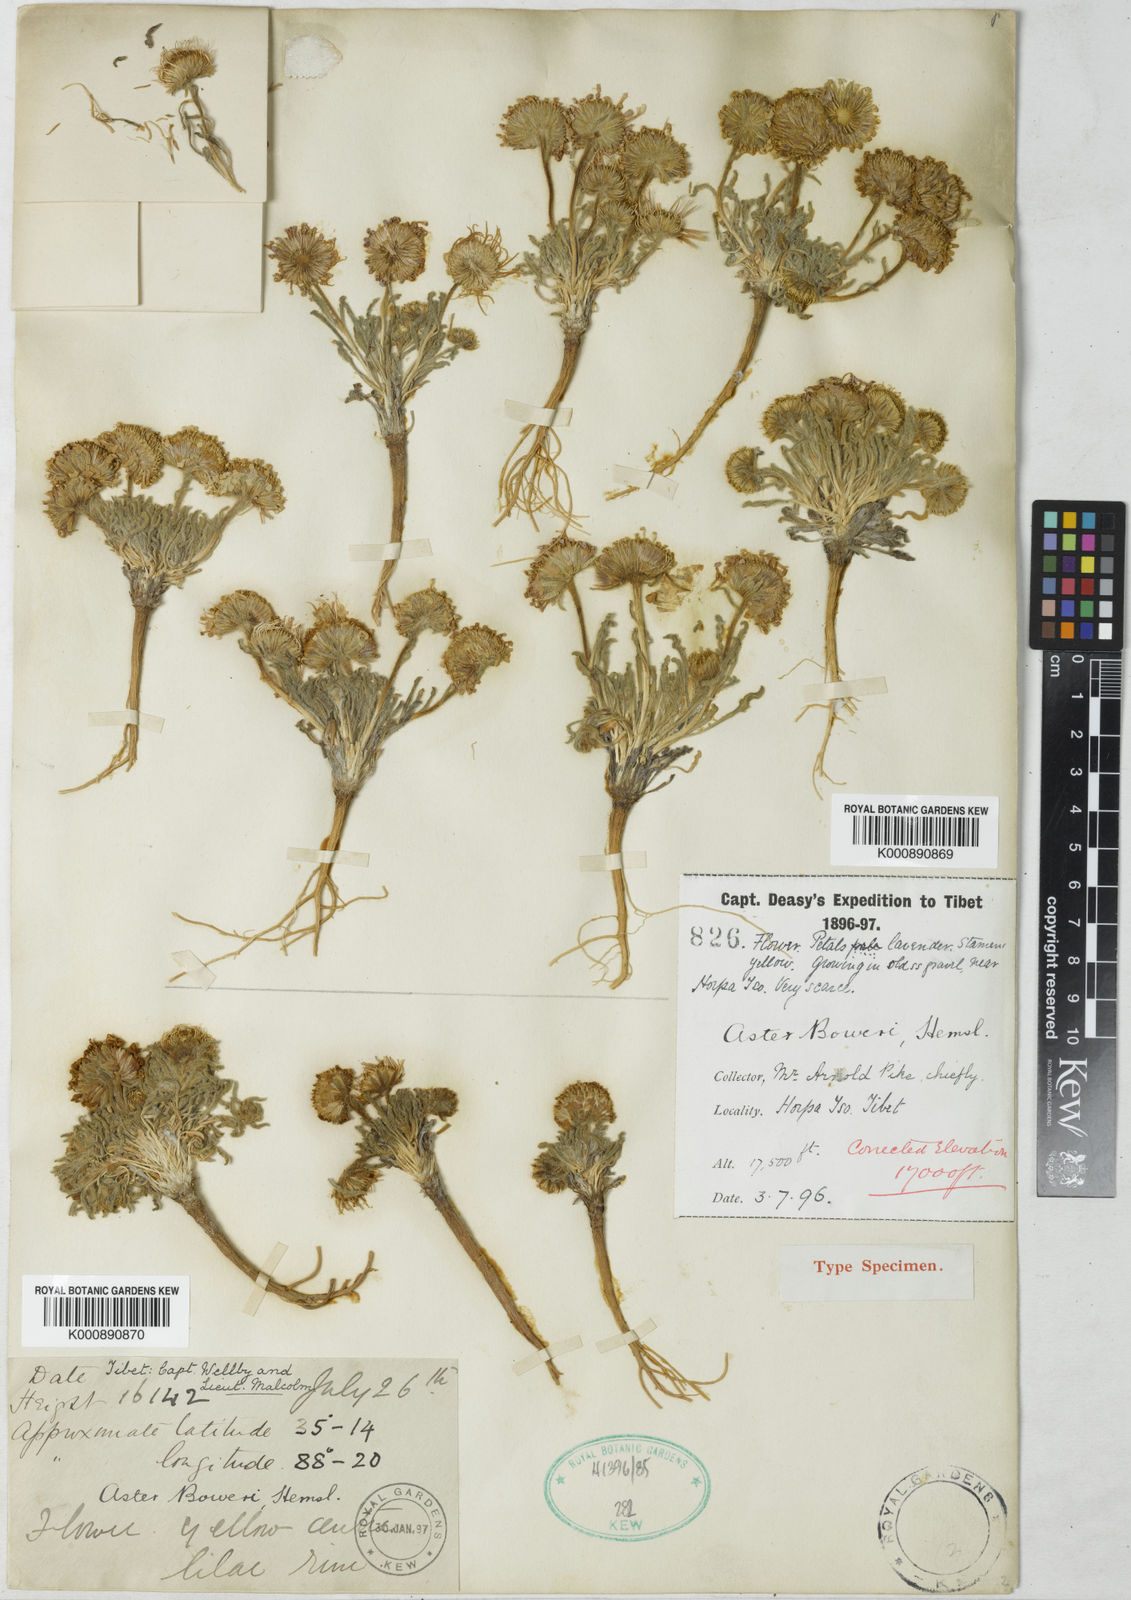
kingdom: Plantae
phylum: Tracheophyta
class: Magnoliopsida
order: Asterales
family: Asteraceae
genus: Heteropappus
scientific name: Heteropappus
